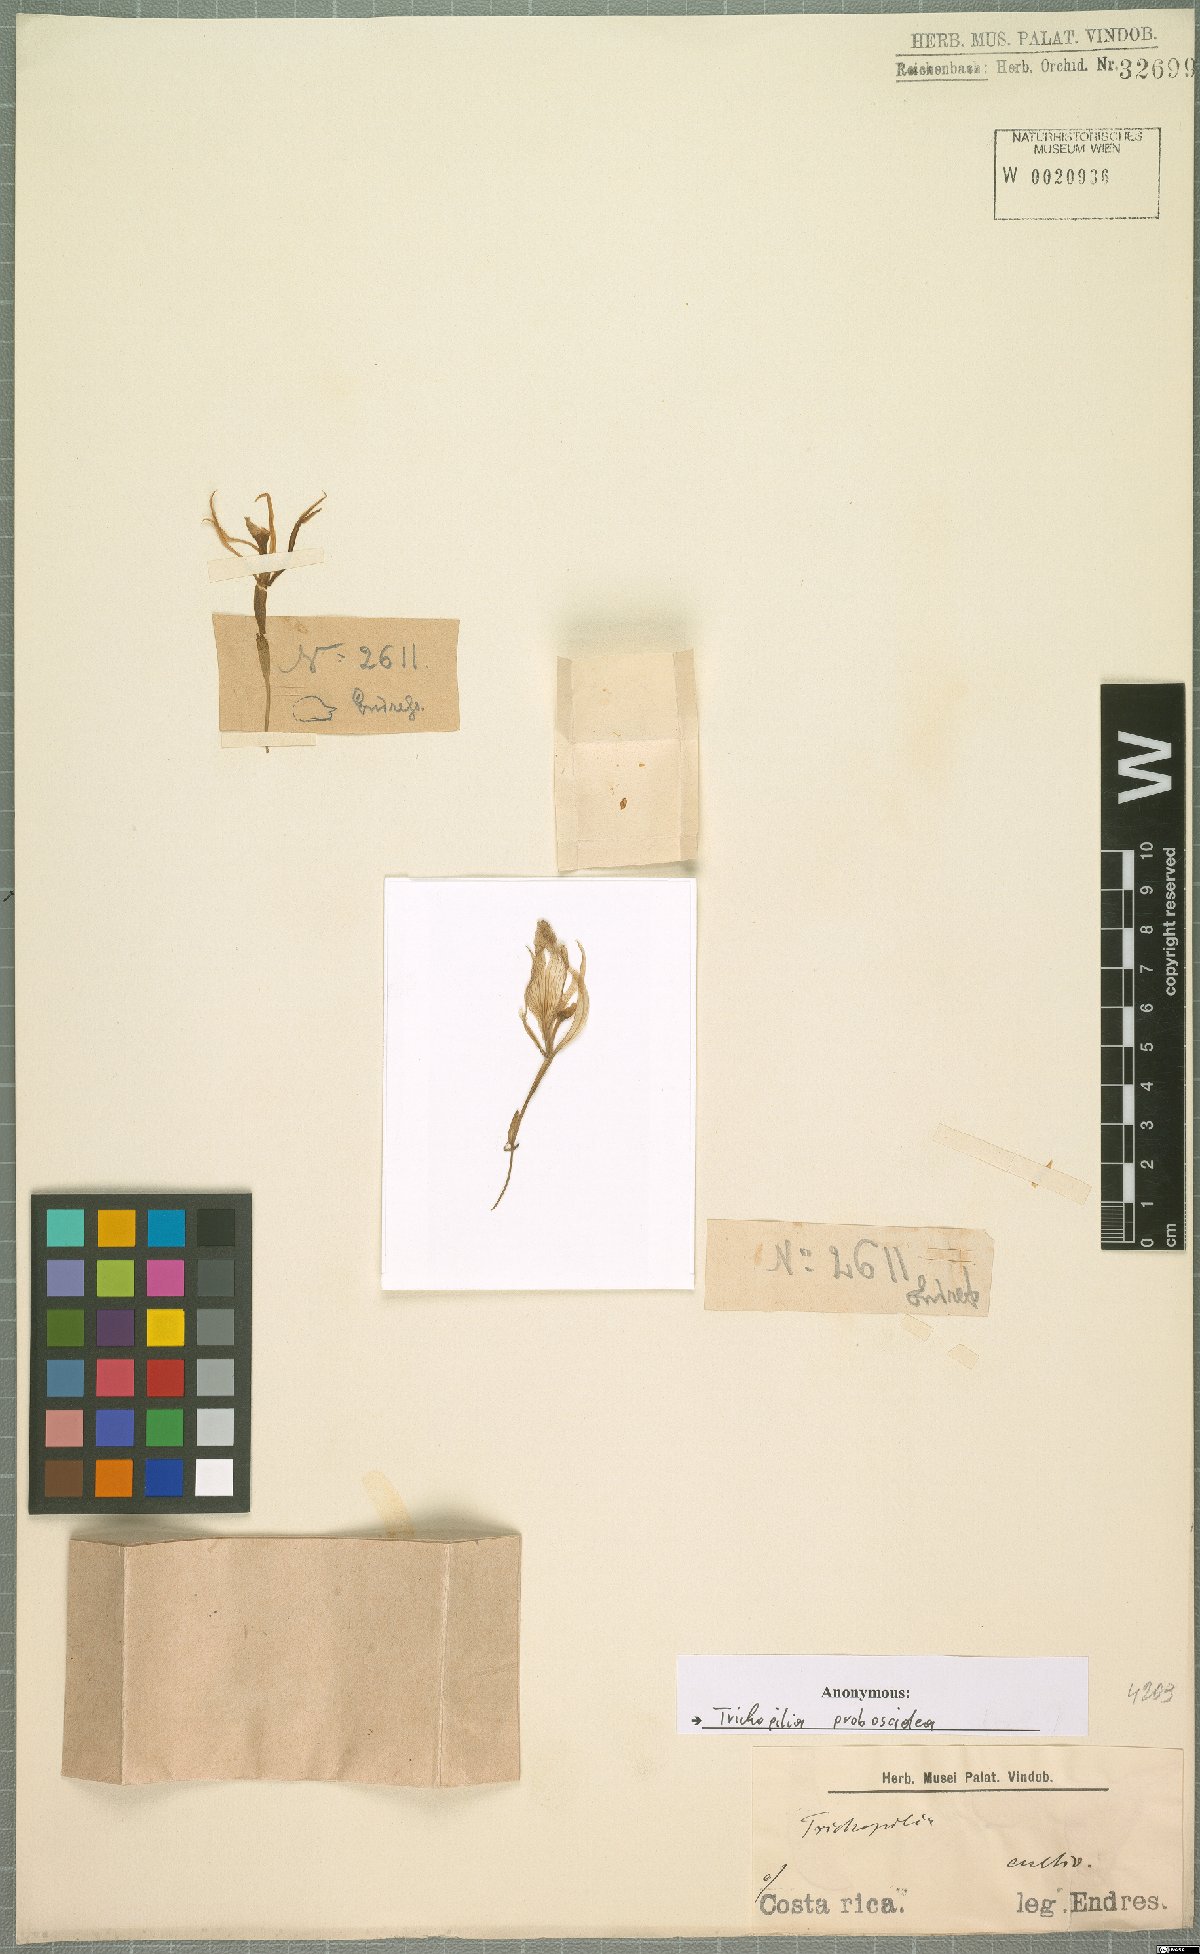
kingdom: Plantae
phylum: Tracheophyta
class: Liliopsida
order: Asparagales
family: Orchidaceae
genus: Trichopilia
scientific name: Trichopilia
